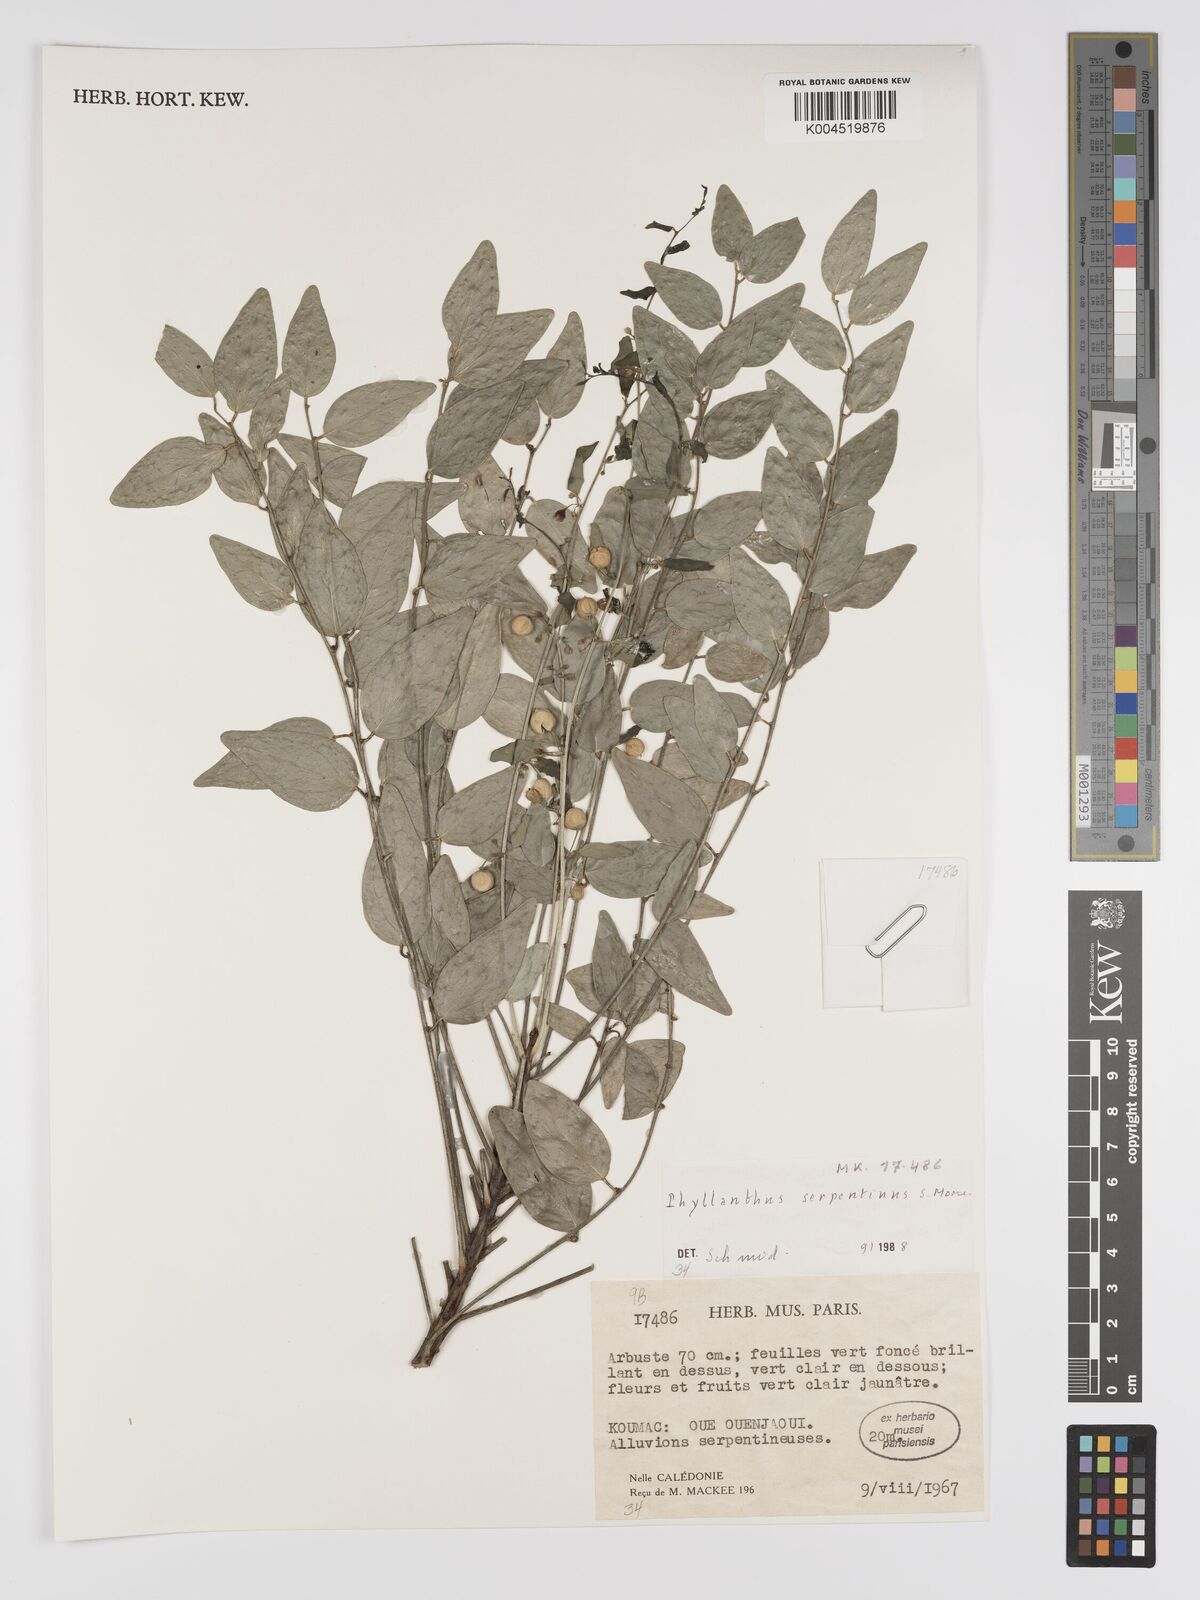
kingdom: Plantae
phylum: Tracheophyta
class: Magnoliopsida
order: Malpighiales
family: Phyllanthaceae
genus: Phyllanthus
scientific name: Phyllanthus serpentinus
